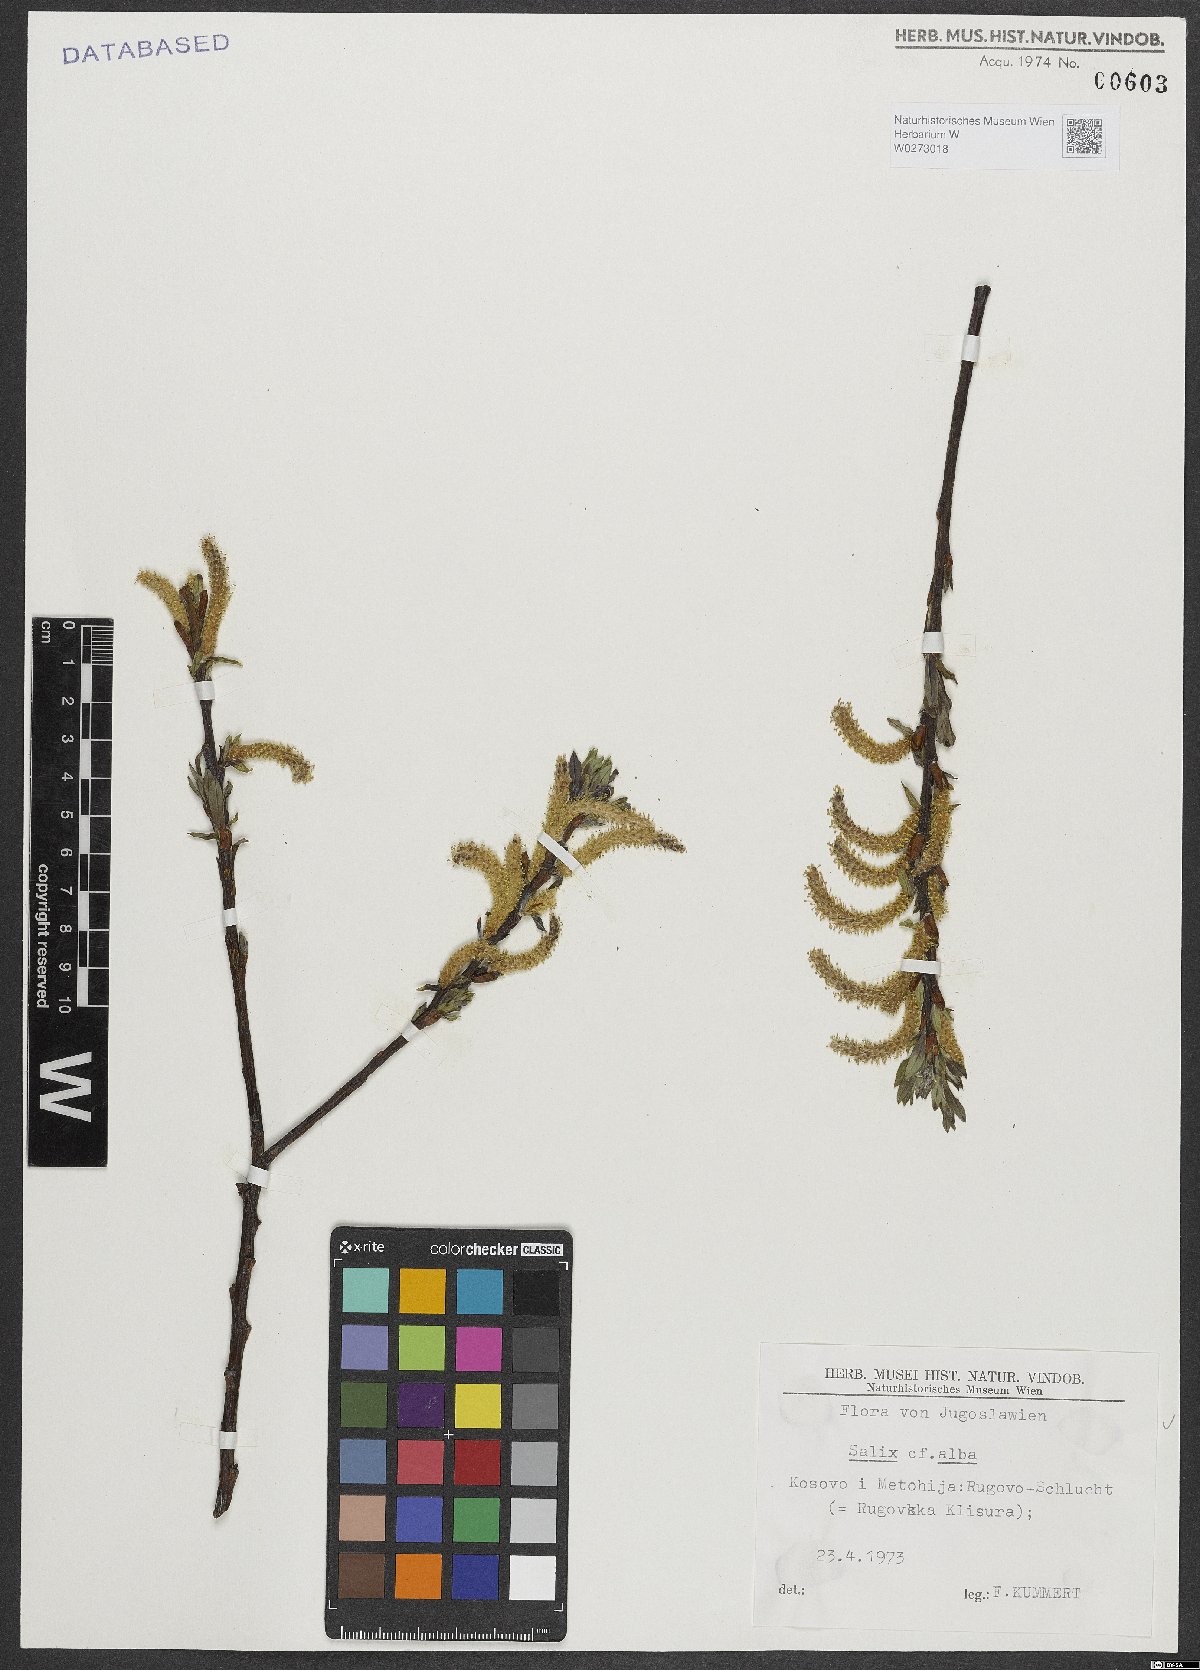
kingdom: Plantae
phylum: Tracheophyta
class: Magnoliopsida
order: Malpighiales
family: Salicaceae
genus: Salix
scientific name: Salix alba
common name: White willow
